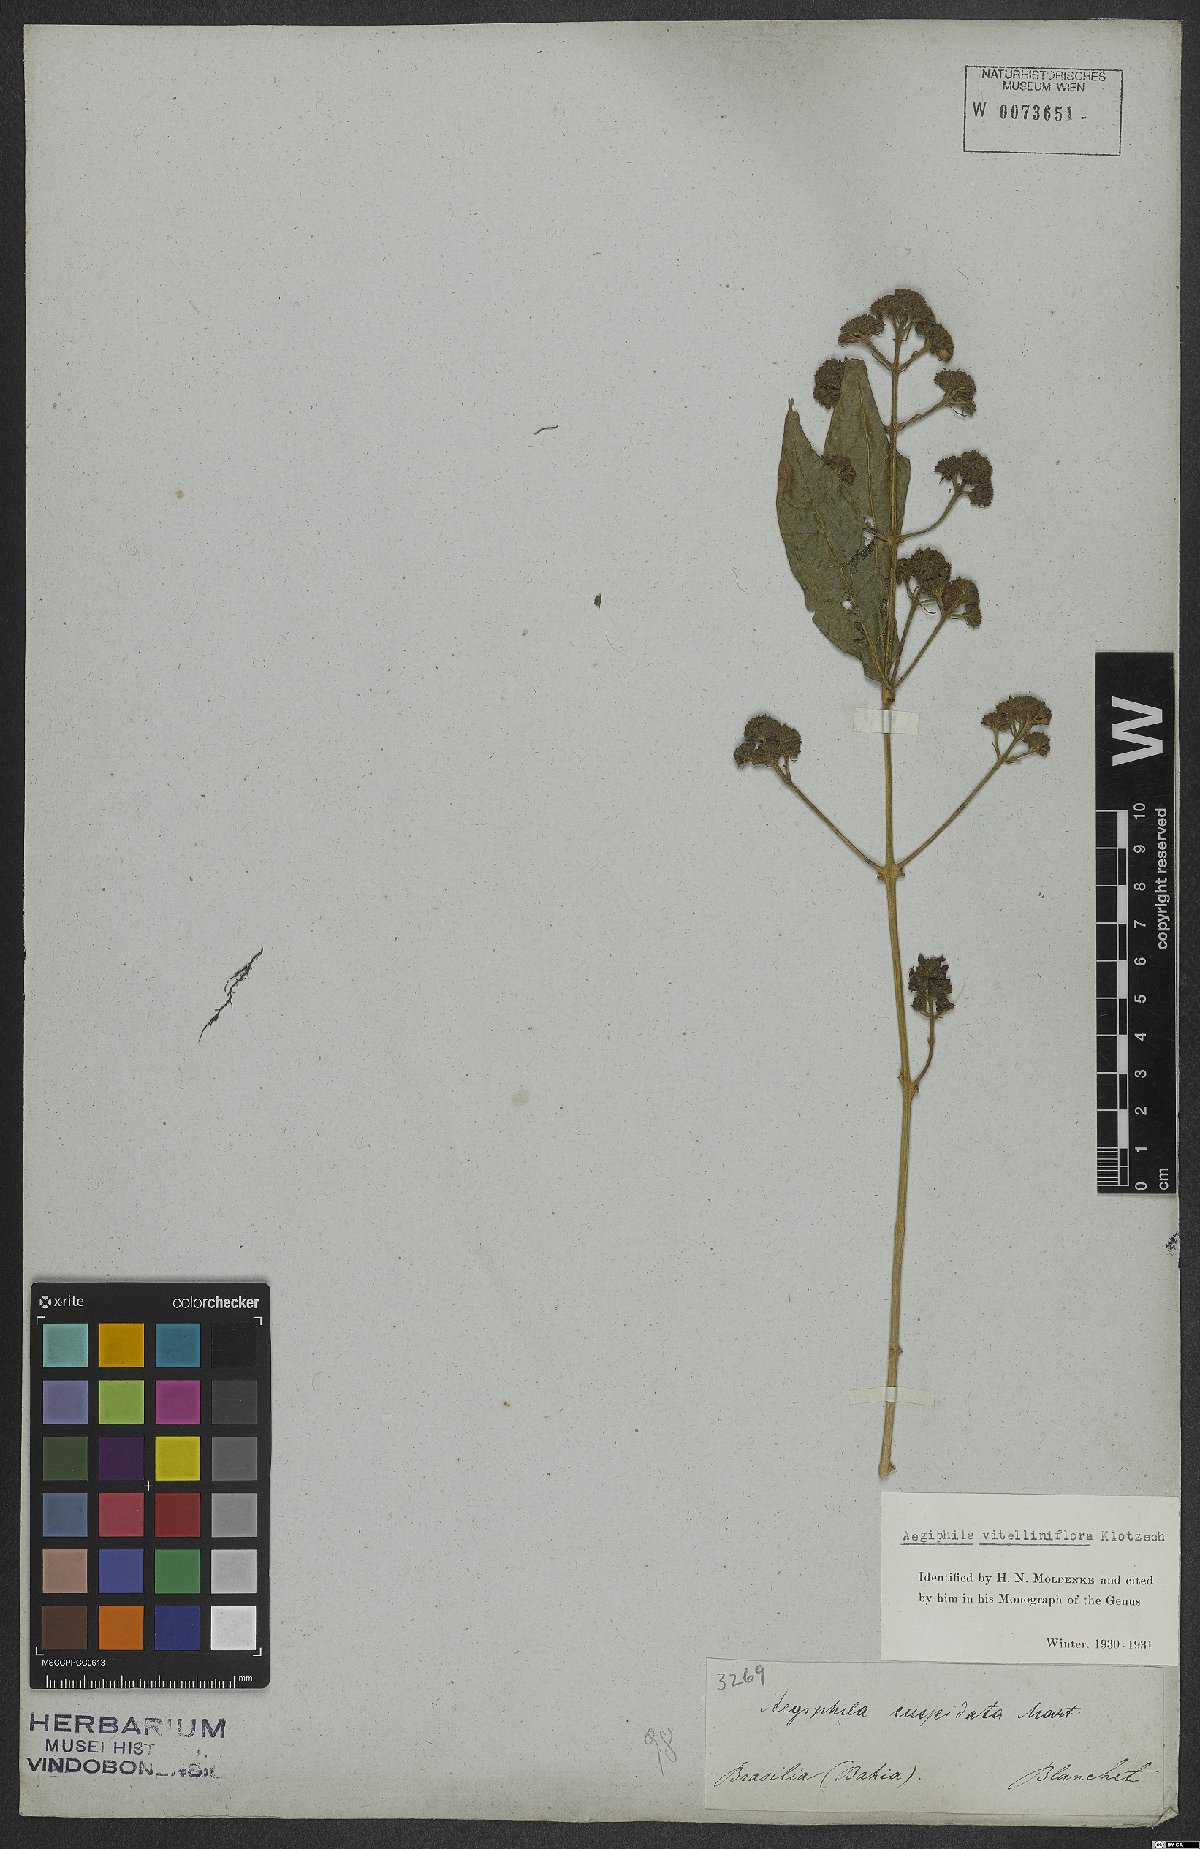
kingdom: Plantae
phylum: Tracheophyta
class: Magnoliopsida
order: Lamiales
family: Lamiaceae
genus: Aegiphila
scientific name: Aegiphila vitelliniflora
